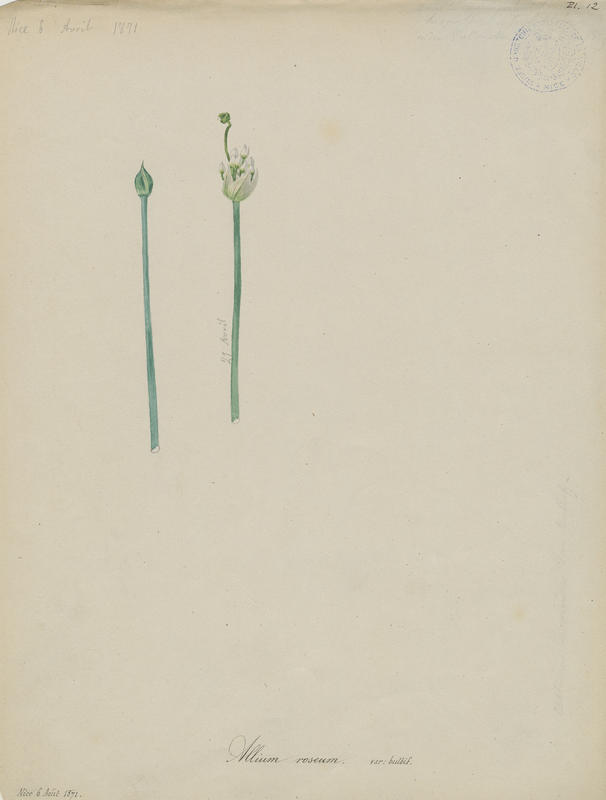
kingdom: Plantae
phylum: Tracheophyta
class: Liliopsida
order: Asparagales
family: Amaryllidaceae
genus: Allium
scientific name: Allium roseum
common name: Rosy garlic
